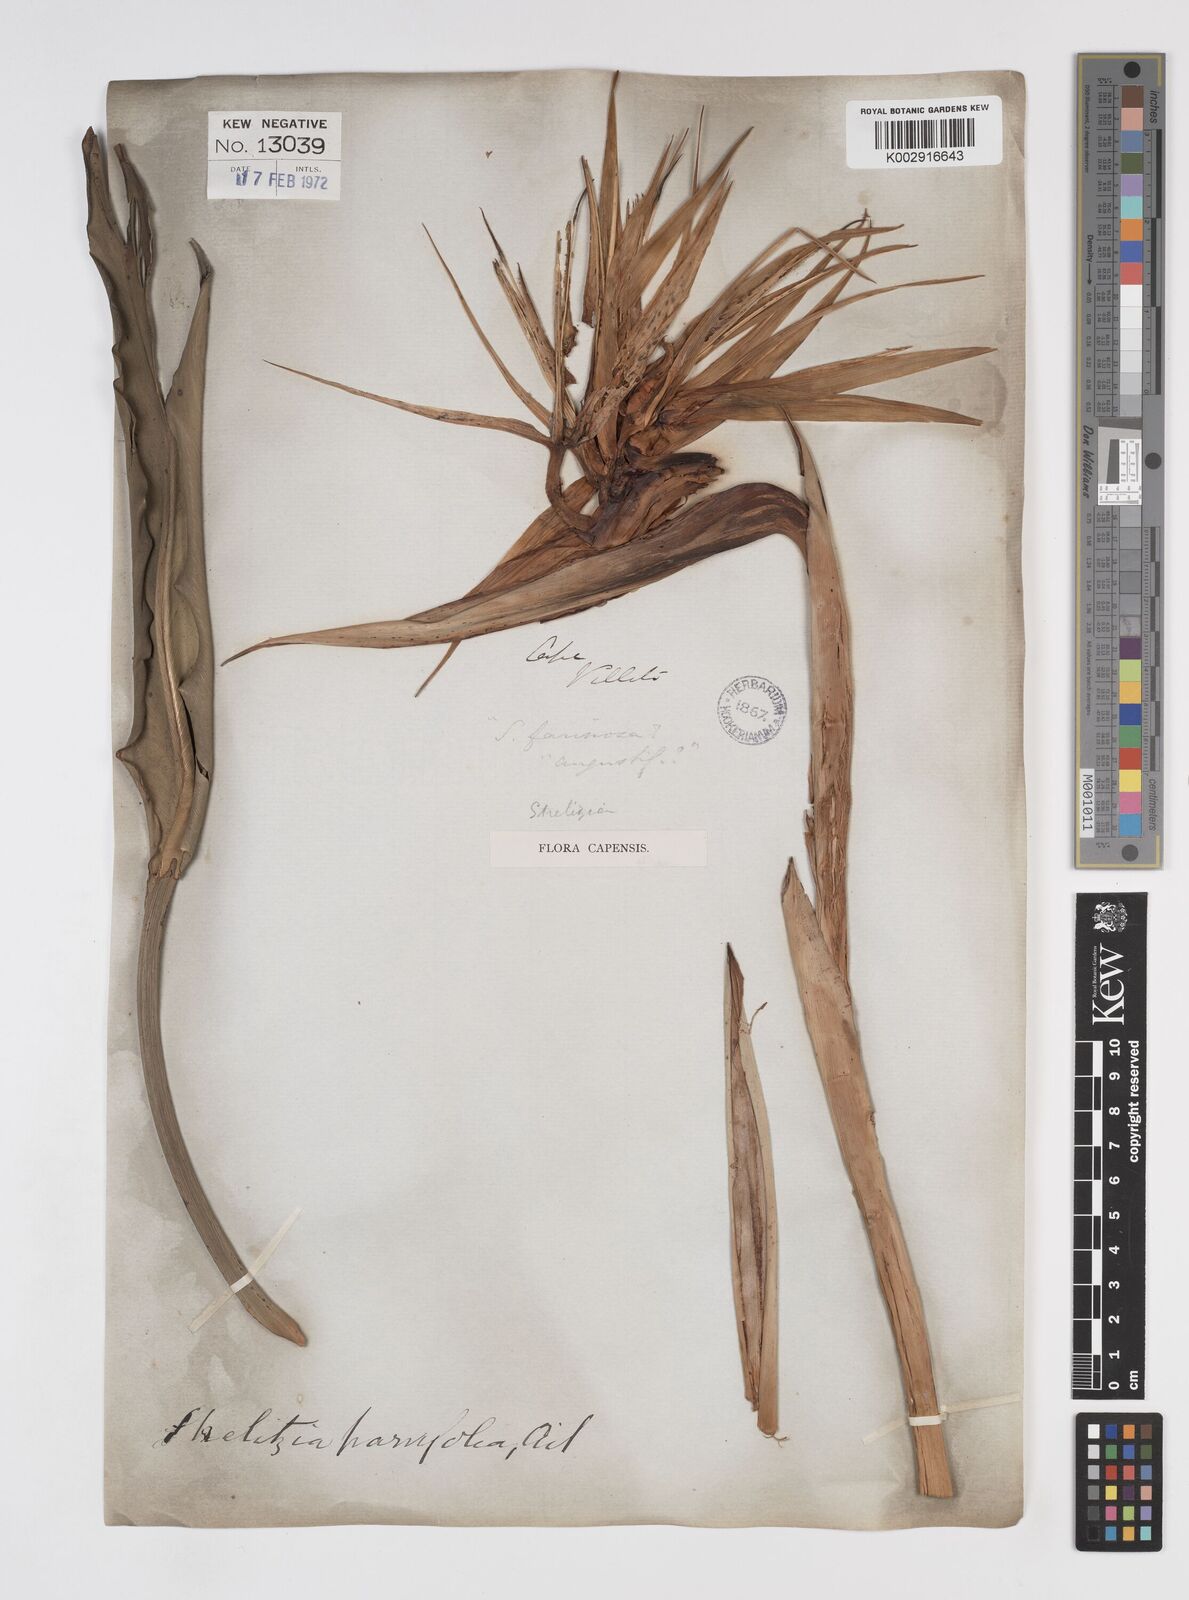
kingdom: Plantae
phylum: Tracheophyta
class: Liliopsida
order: Zingiberales
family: Strelitziaceae
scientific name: Strelitziaceae
